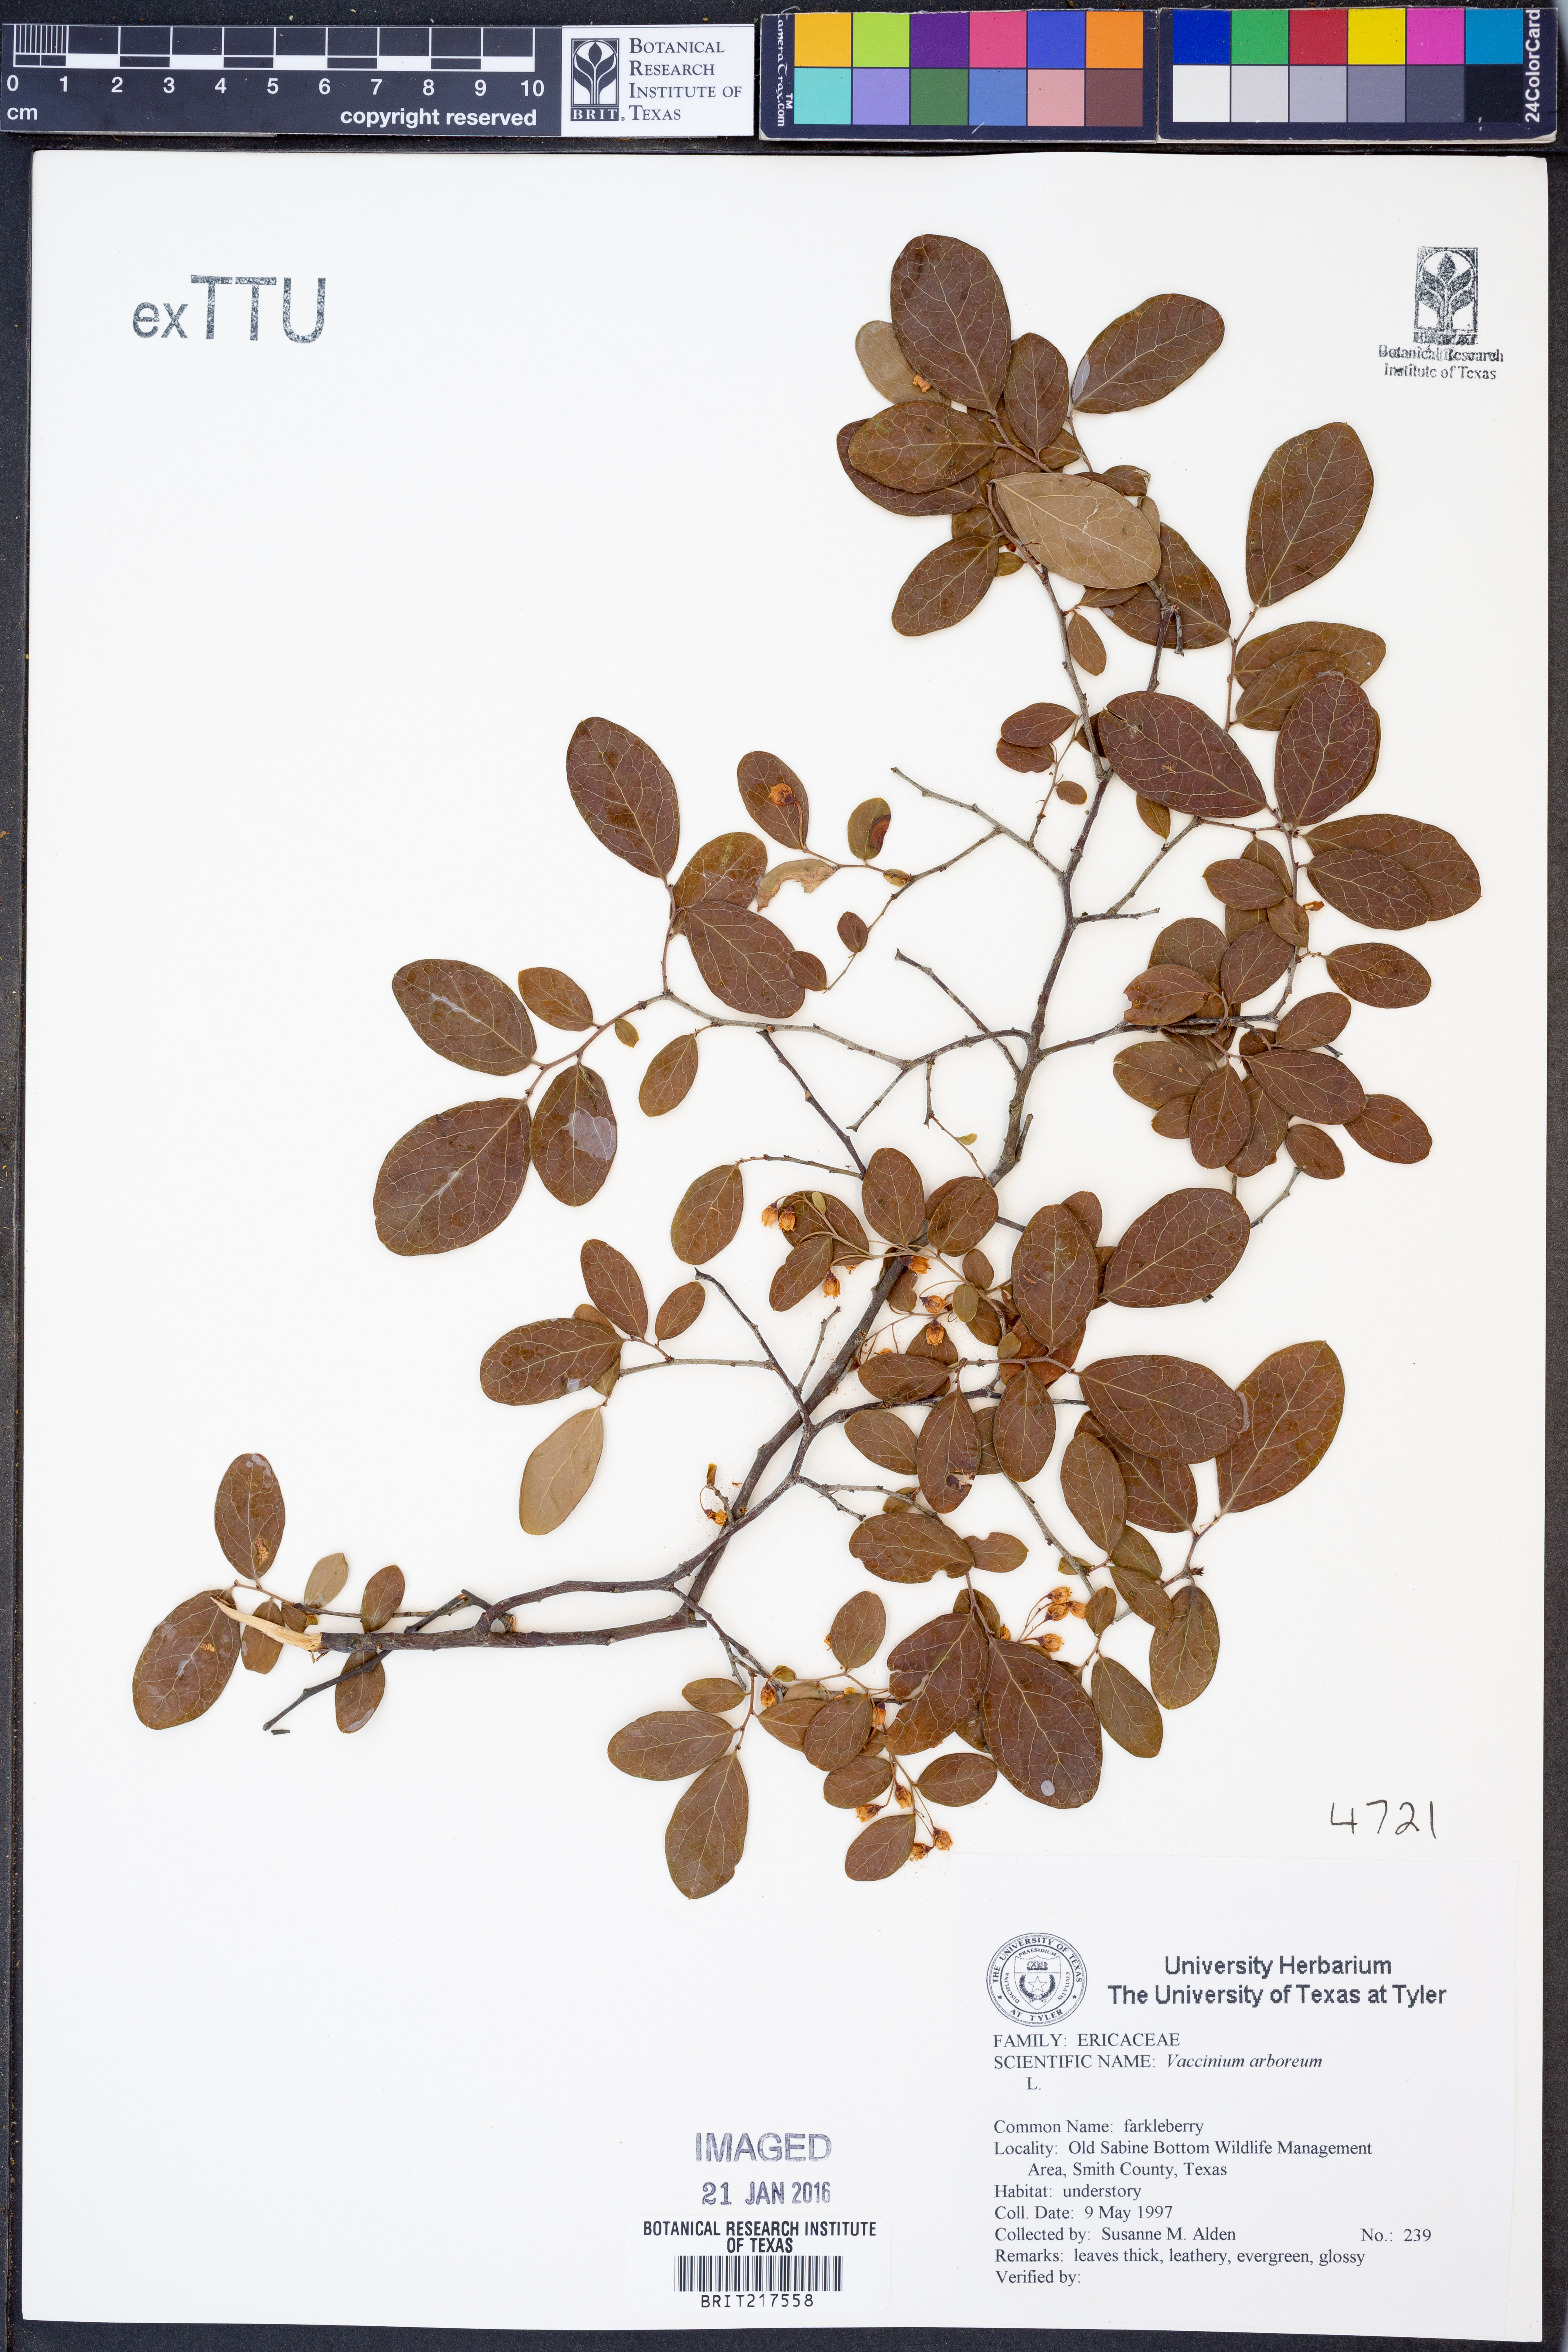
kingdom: Plantae
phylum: Tracheophyta
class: Magnoliopsida
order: Ericales
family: Ericaceae
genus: Vaccinium
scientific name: Vaccinium arboreum
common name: Farkleberry
